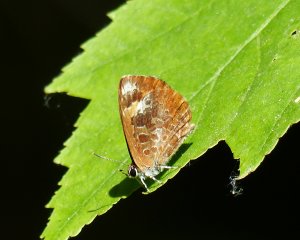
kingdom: Animalia
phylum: Arthropoda
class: Insecta
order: Lepidoptera
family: Lycaenidae
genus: Feniseca
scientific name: Feniseca tarquinius
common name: Harvester
